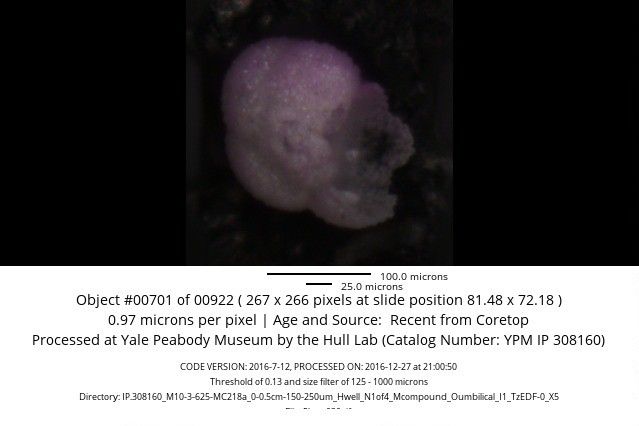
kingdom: Chromista
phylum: Foraminifera
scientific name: Foraminifera
